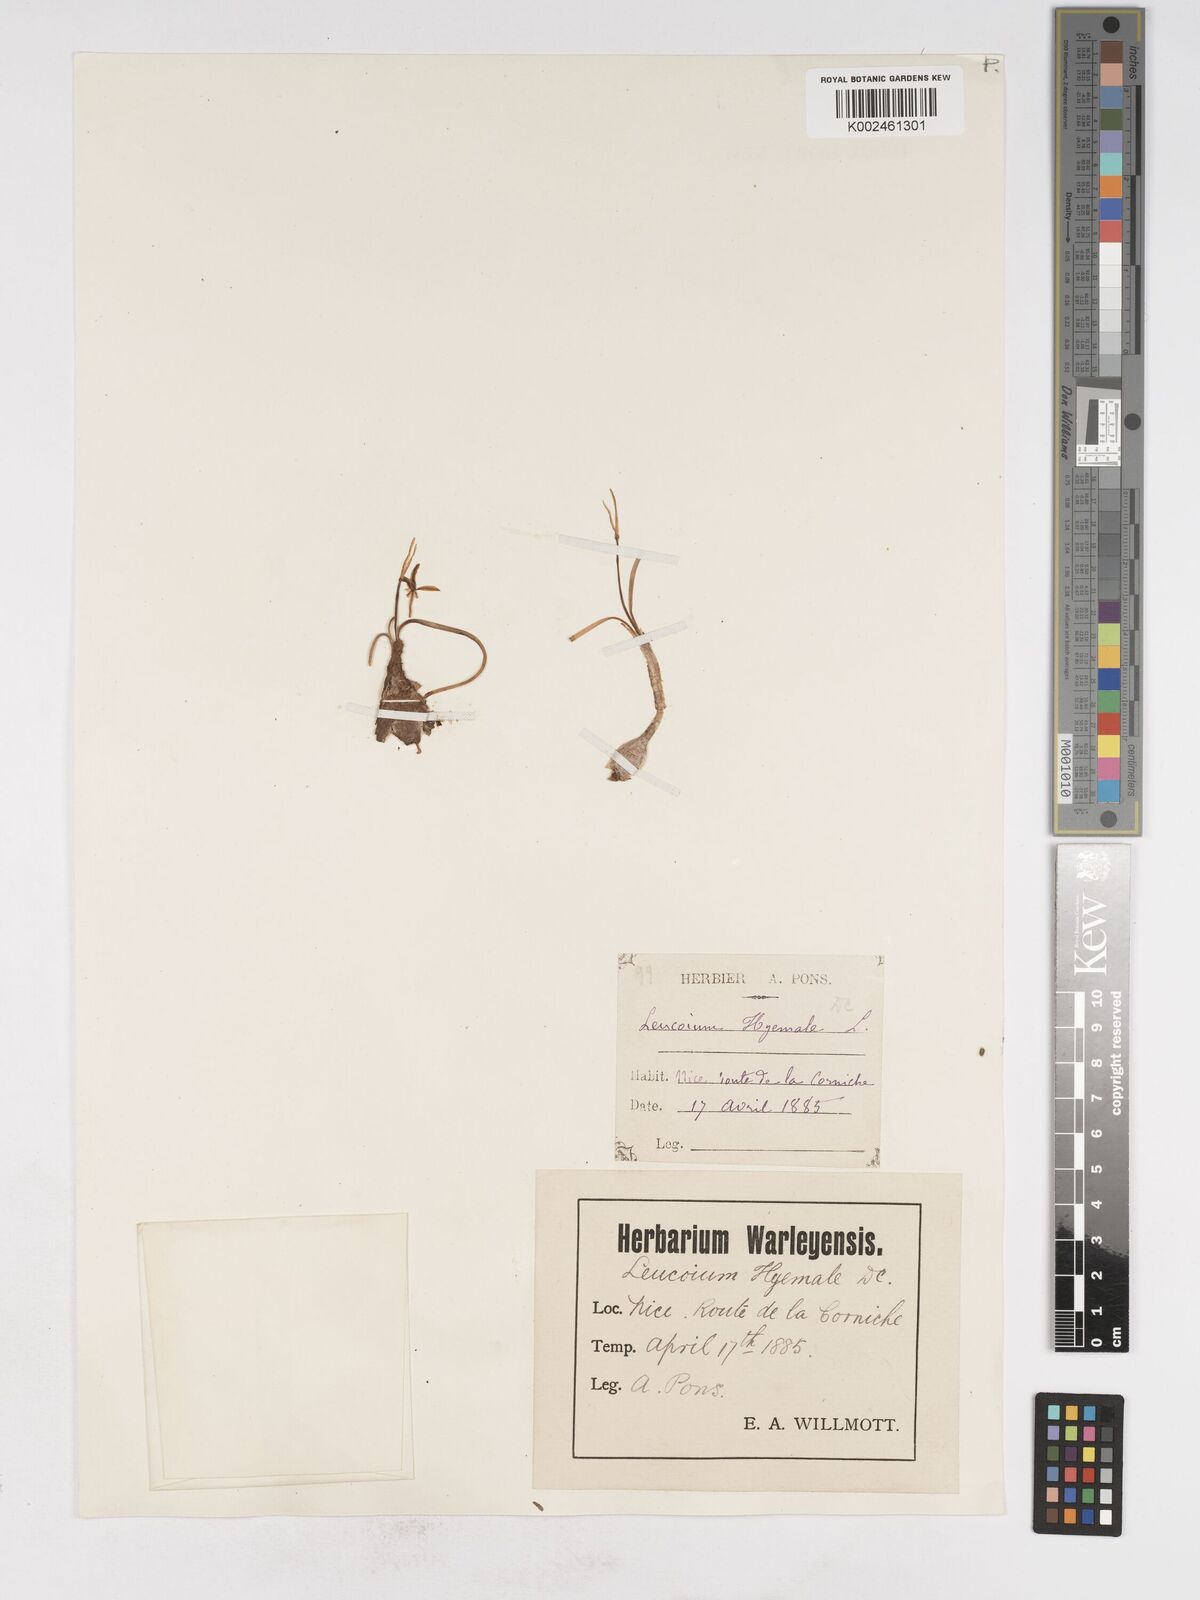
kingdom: Plantae
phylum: Tracheophyta
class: Liliopsida
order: Asparagales
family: Amaryllidaceae
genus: Acis
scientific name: Acis nicaeensis
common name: French snowflake
